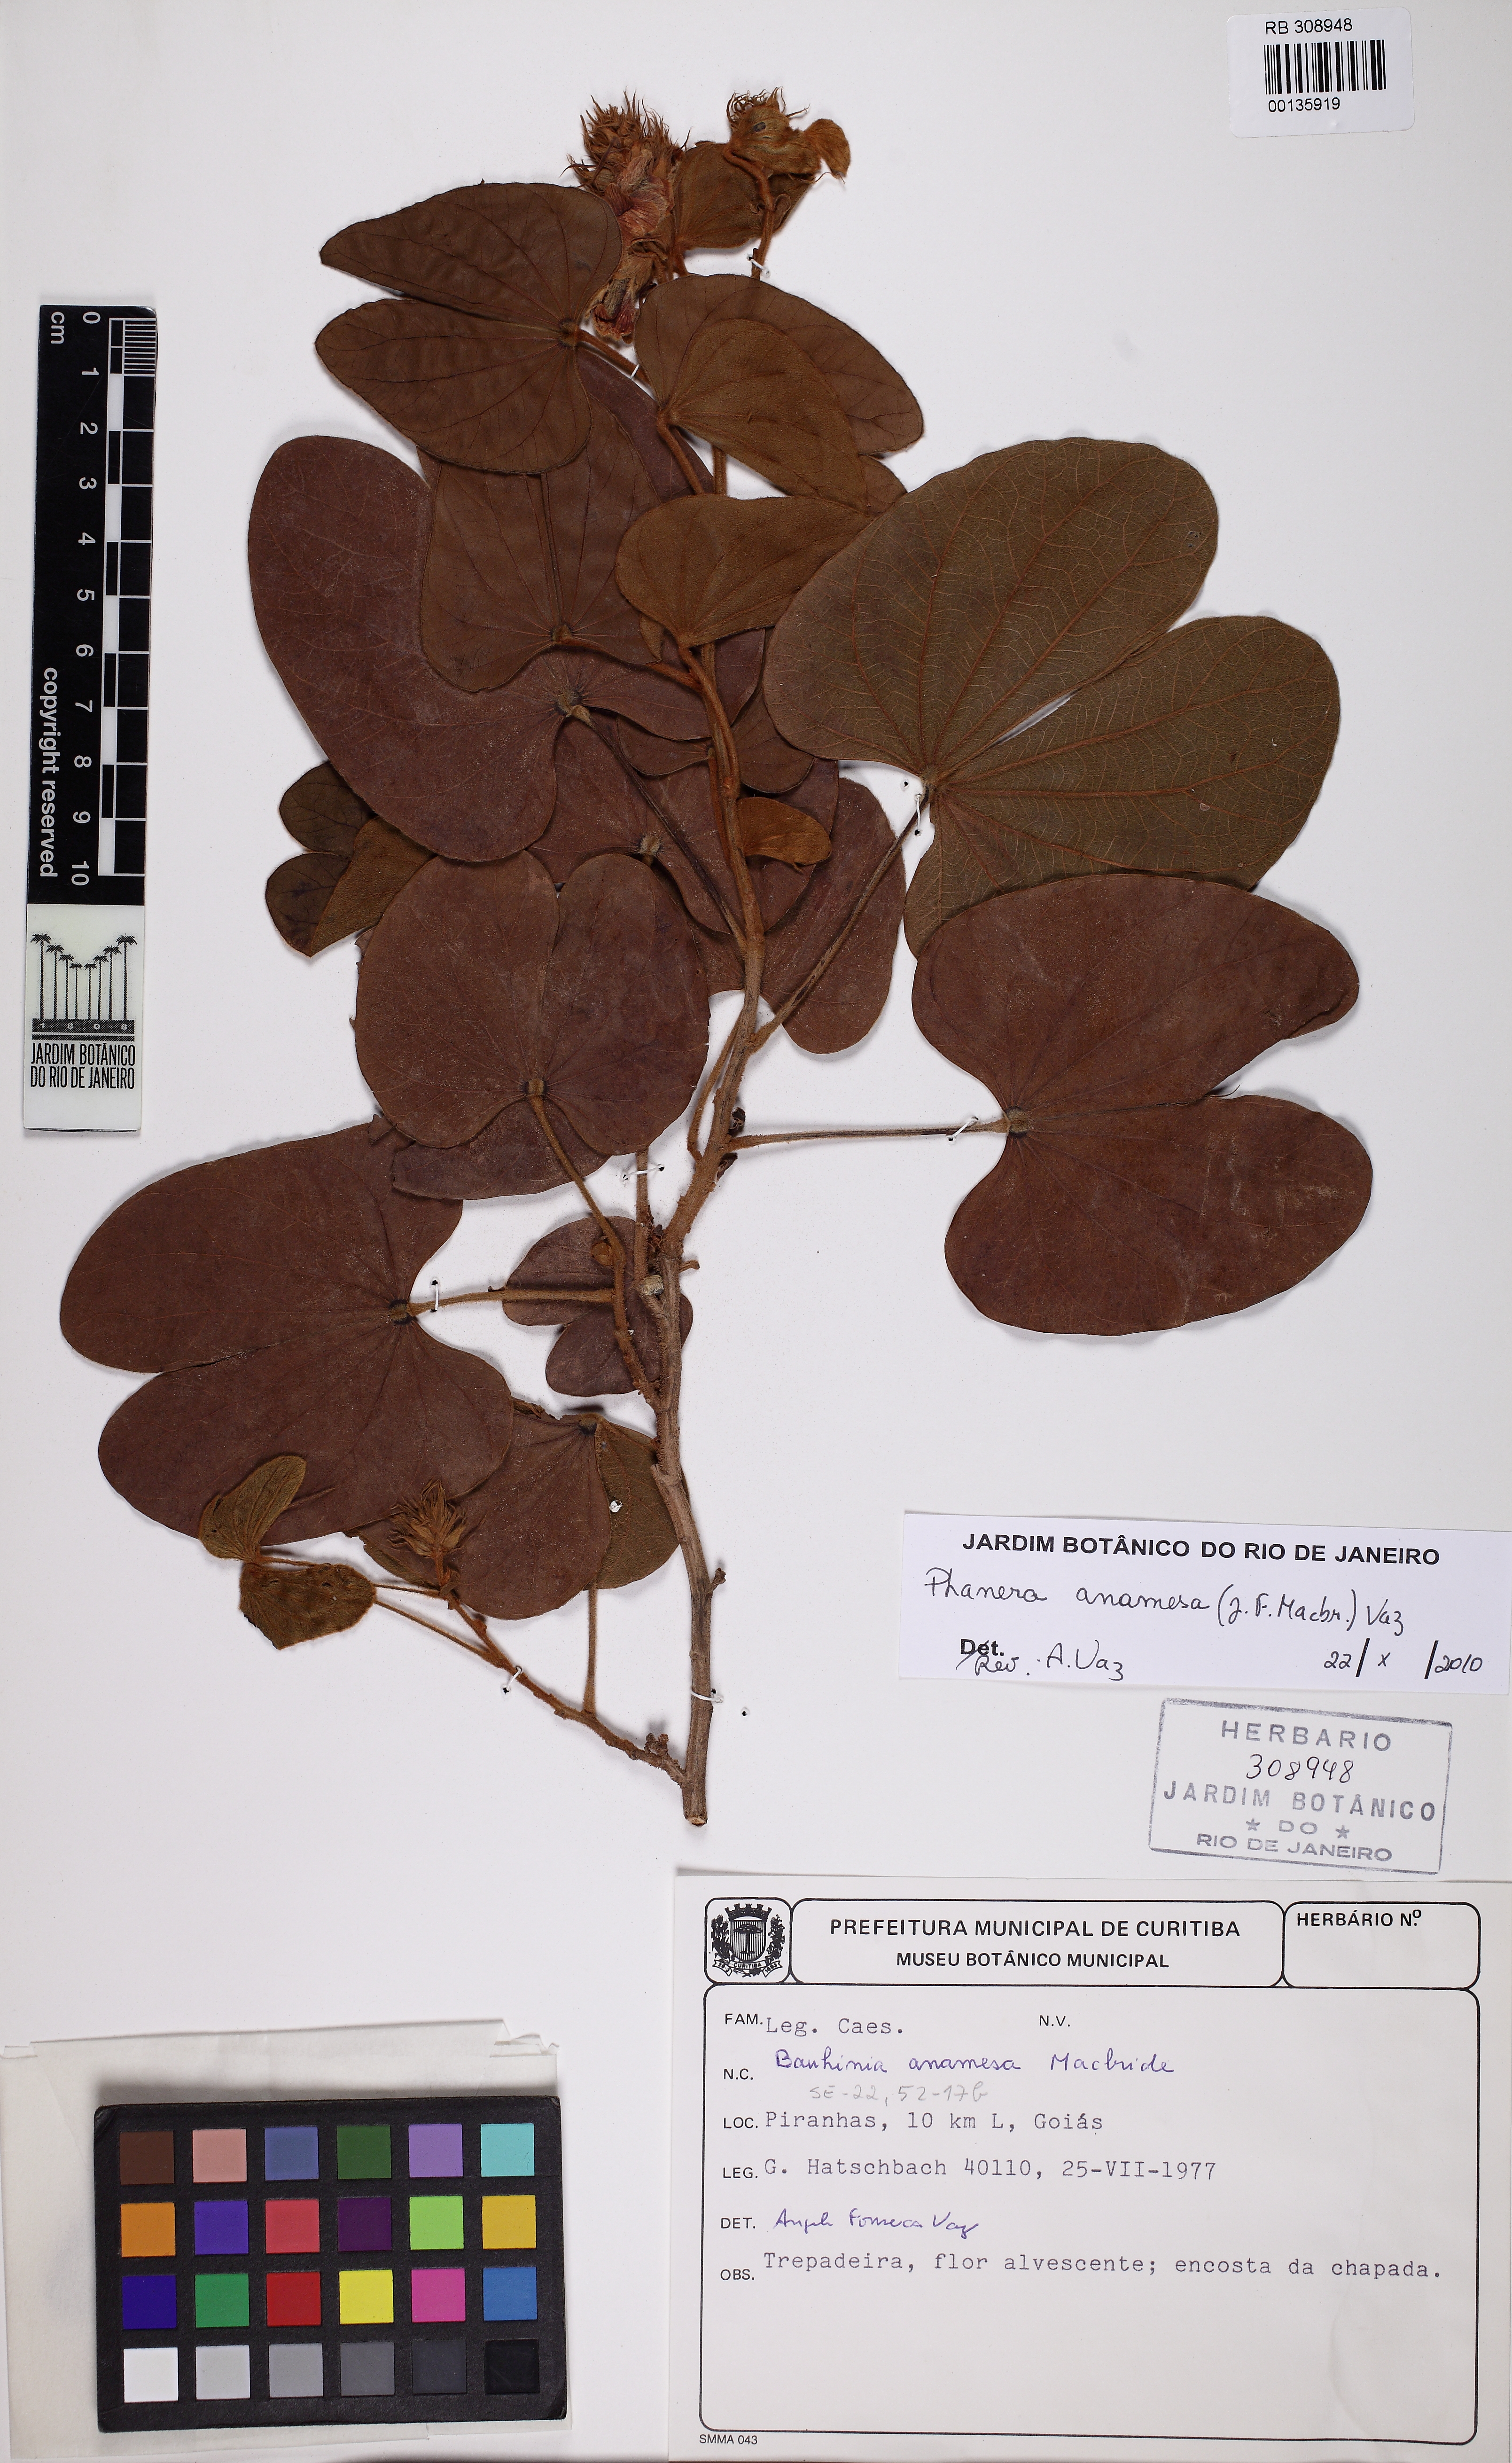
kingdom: Plantae
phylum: Tracheophyta
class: Magnoliopsida
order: Fabales
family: Fabaceae
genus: Schnella
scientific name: Schnella anamesa
